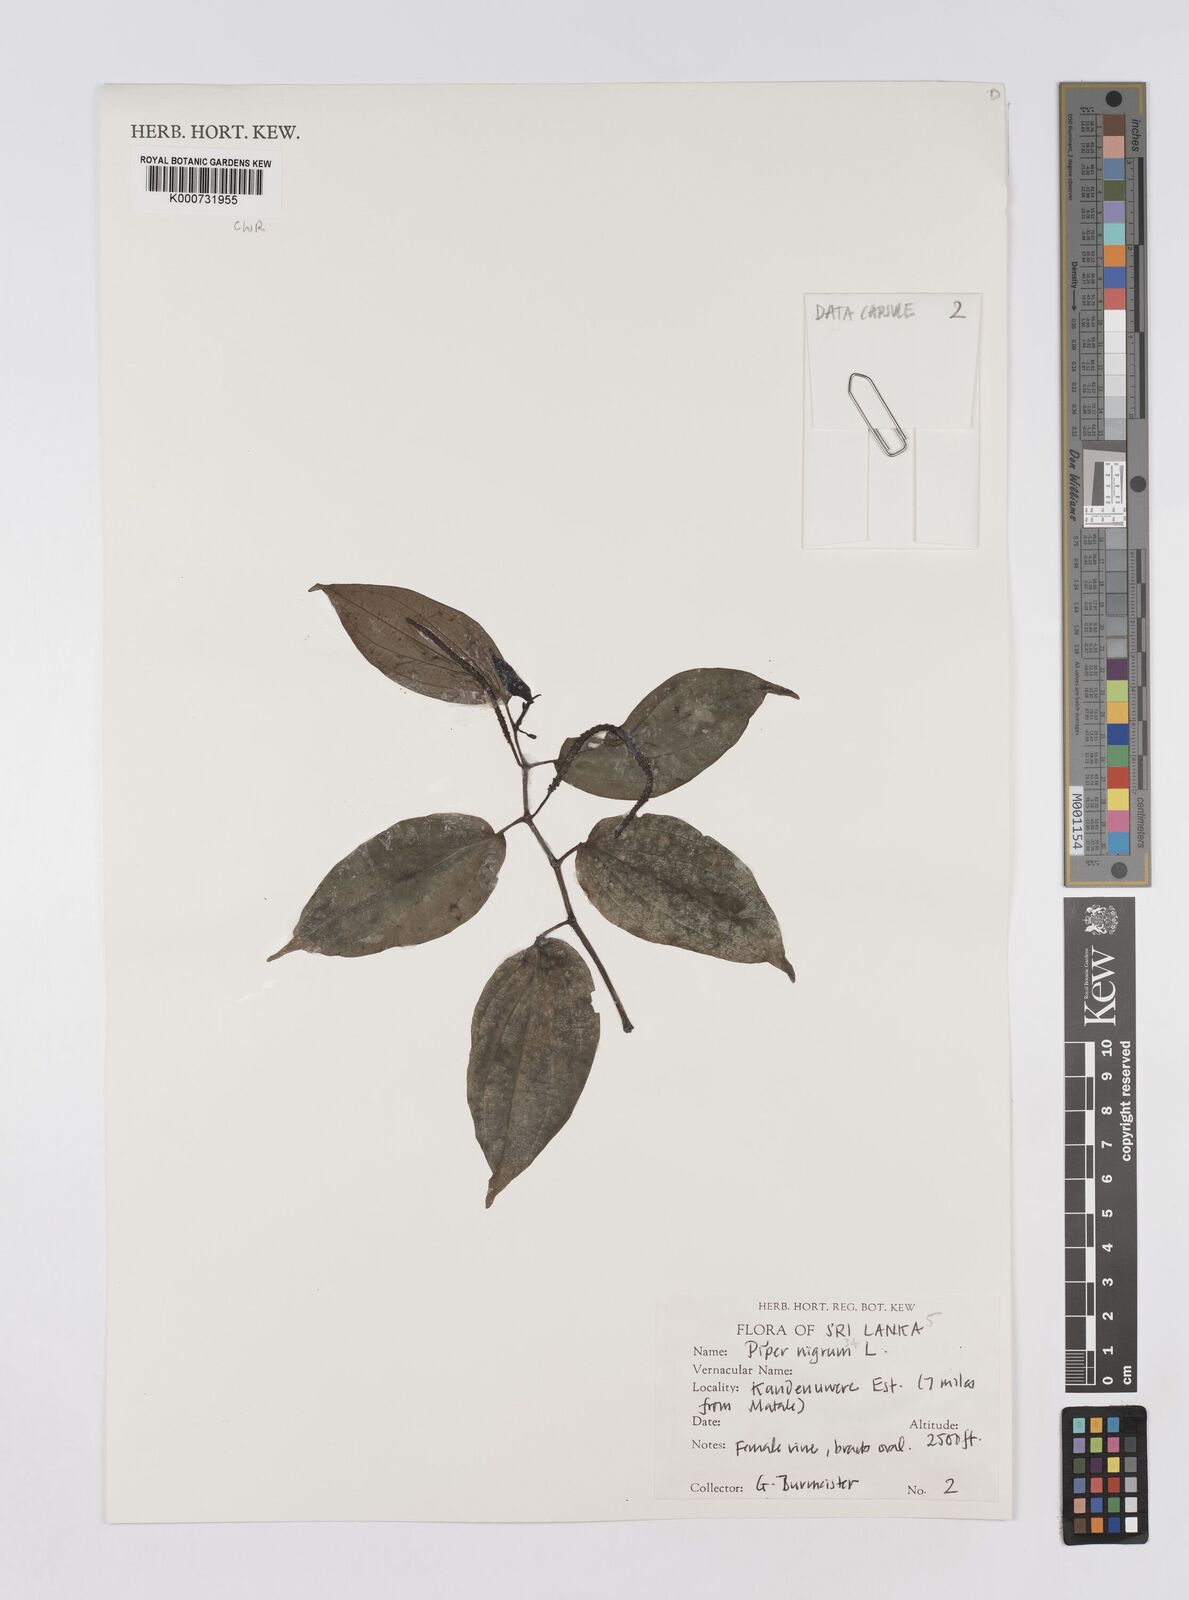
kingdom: Plantae
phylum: Tracheophyta
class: Magnoliopsida
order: Piperales
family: Piperaceae
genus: Piper
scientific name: Piper nigrum
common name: Black pepper
